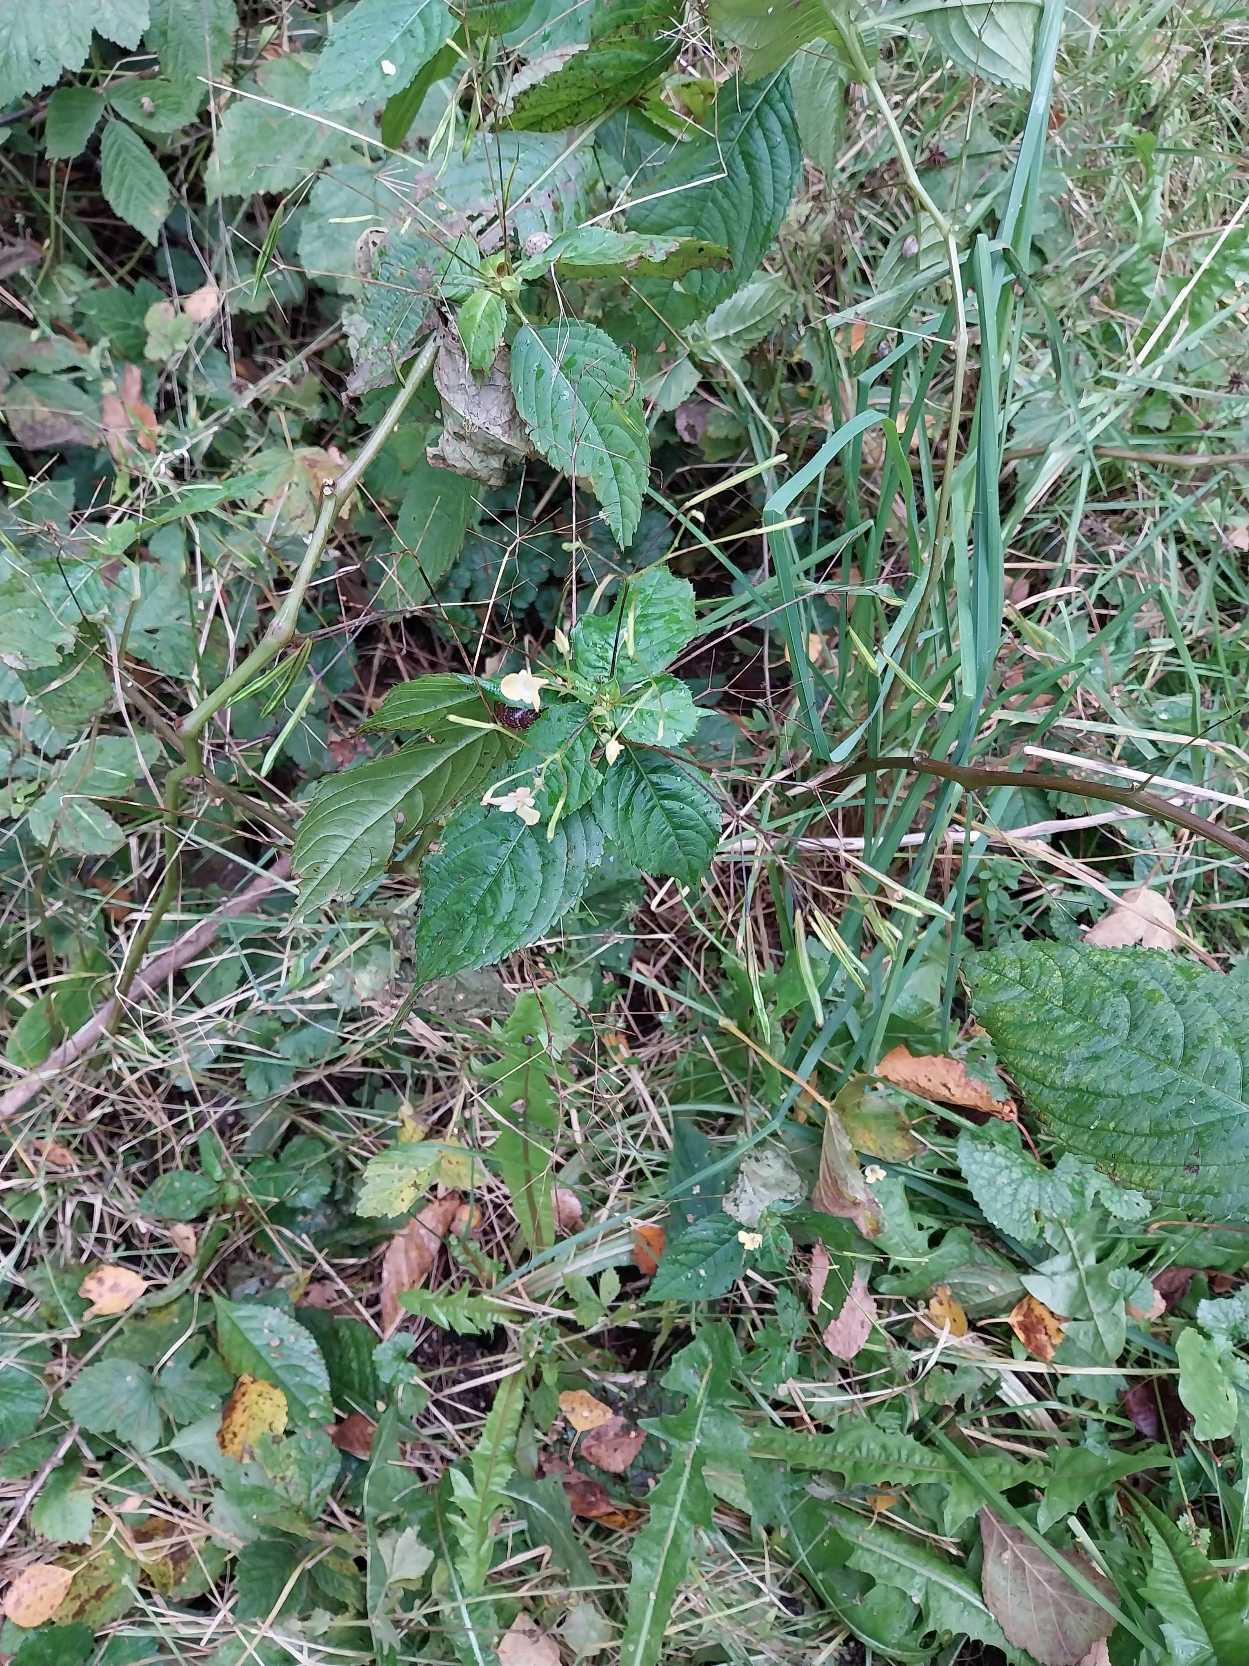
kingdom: Plantae
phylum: Tracheophyta
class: Magnoliopsida
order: Ericales
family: Balsaminaceae
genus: Impatiens
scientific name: Impatiens parviflora
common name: Småblomstret balsamin
